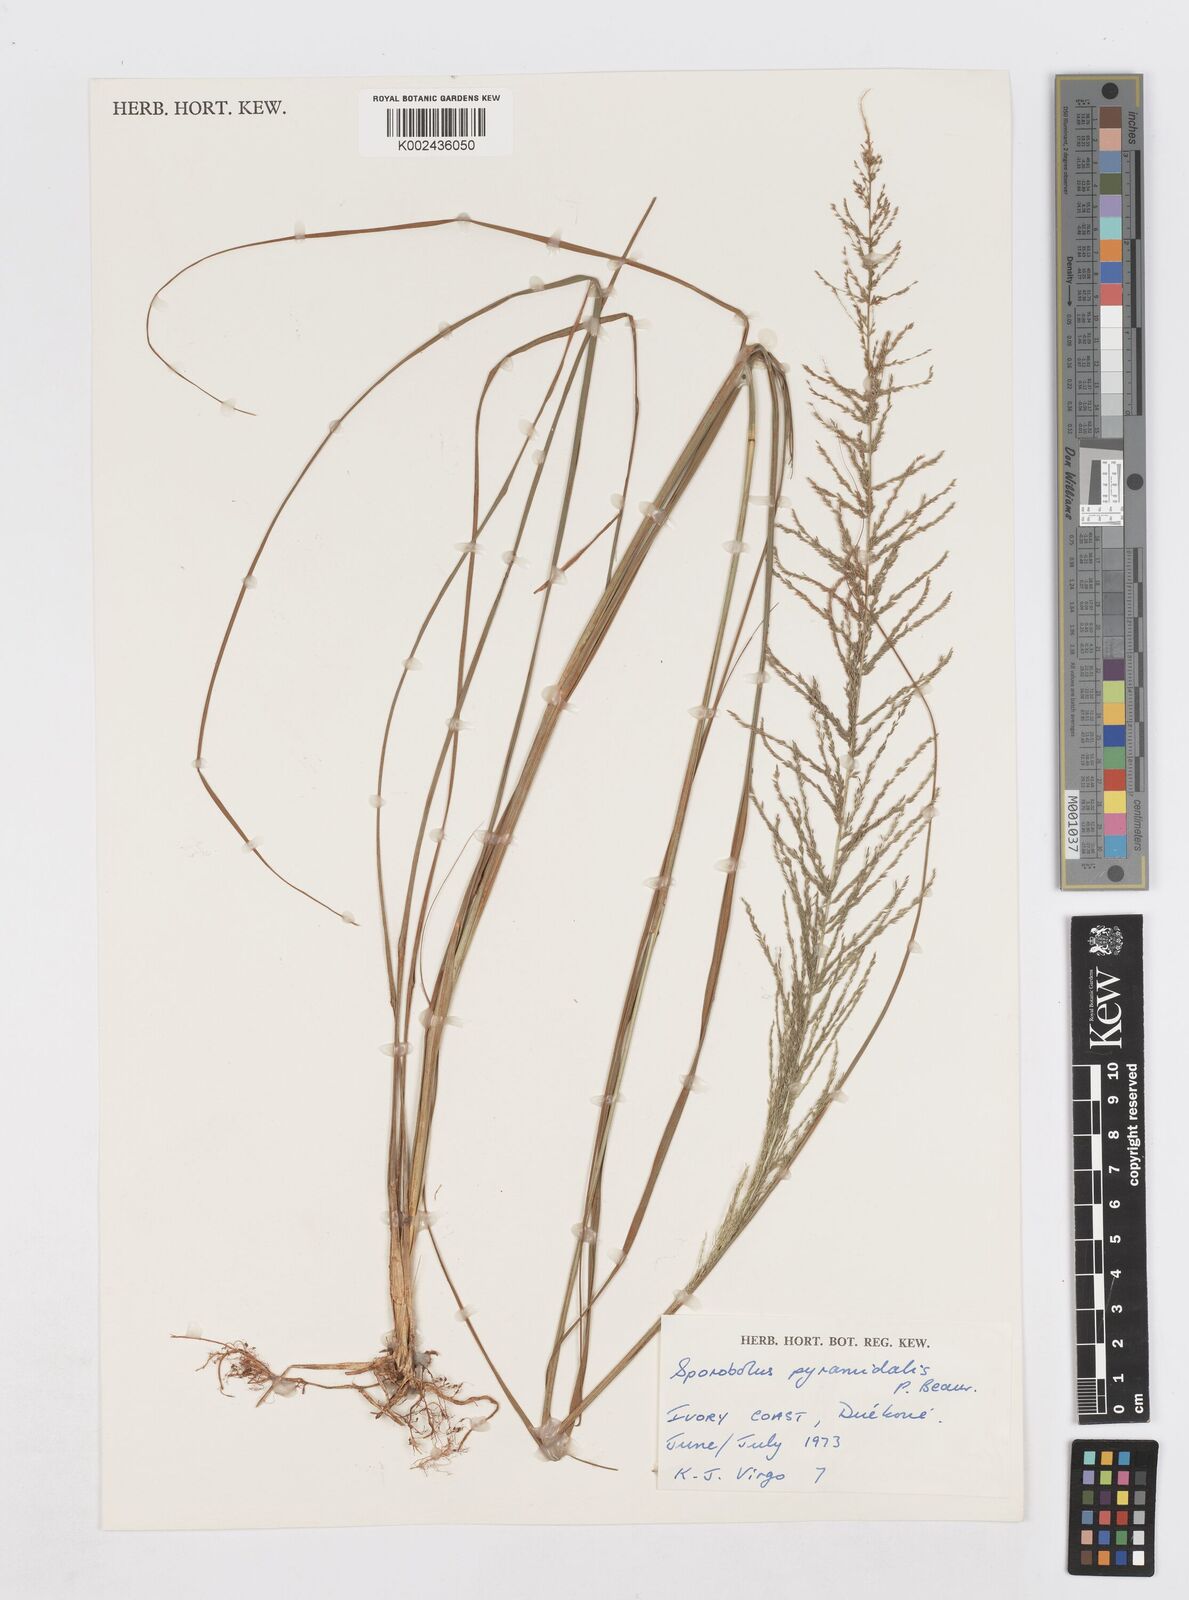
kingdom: Plantae
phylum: Tracheophyta
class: Liliopsida
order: Poales
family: Poaceae
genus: Sporobolus
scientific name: Sporobolus pyramidalis
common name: West indian dropseed
